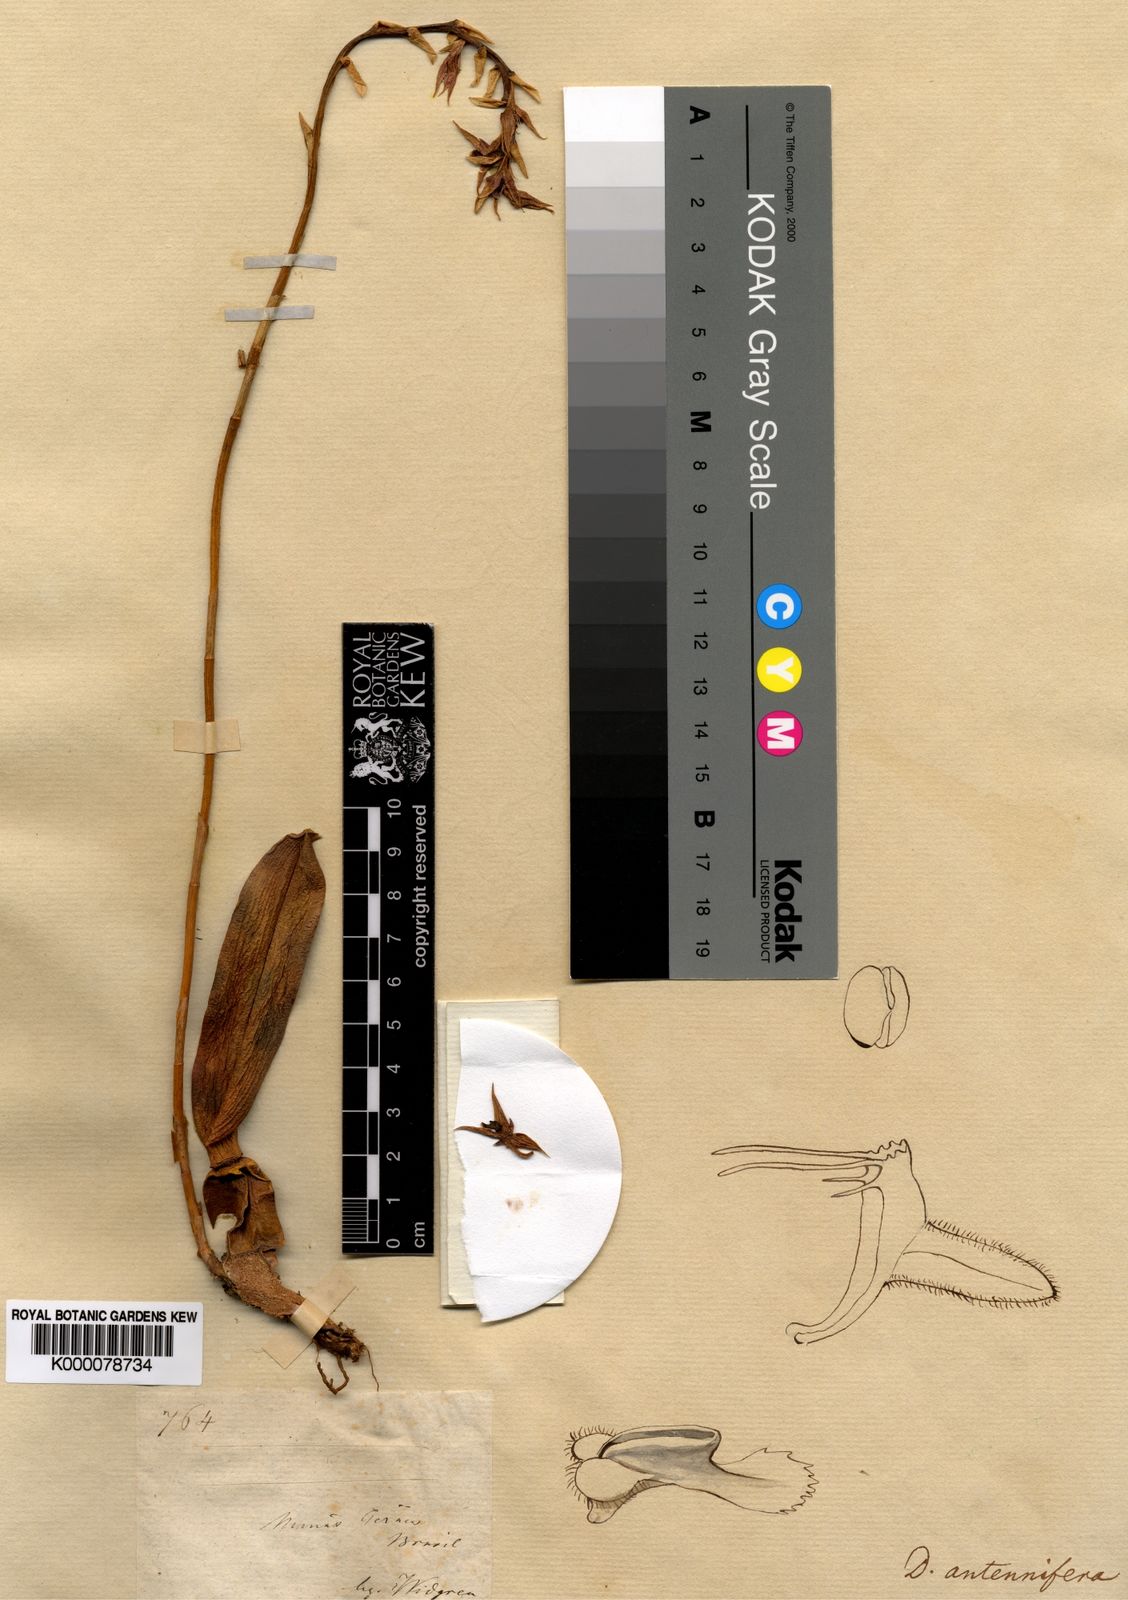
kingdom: Plantae
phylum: Tracheophyta
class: Liliopsida
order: Asparagales
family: Orchidaceae
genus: Bulbophyllum
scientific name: Bulbophyllum geraense
